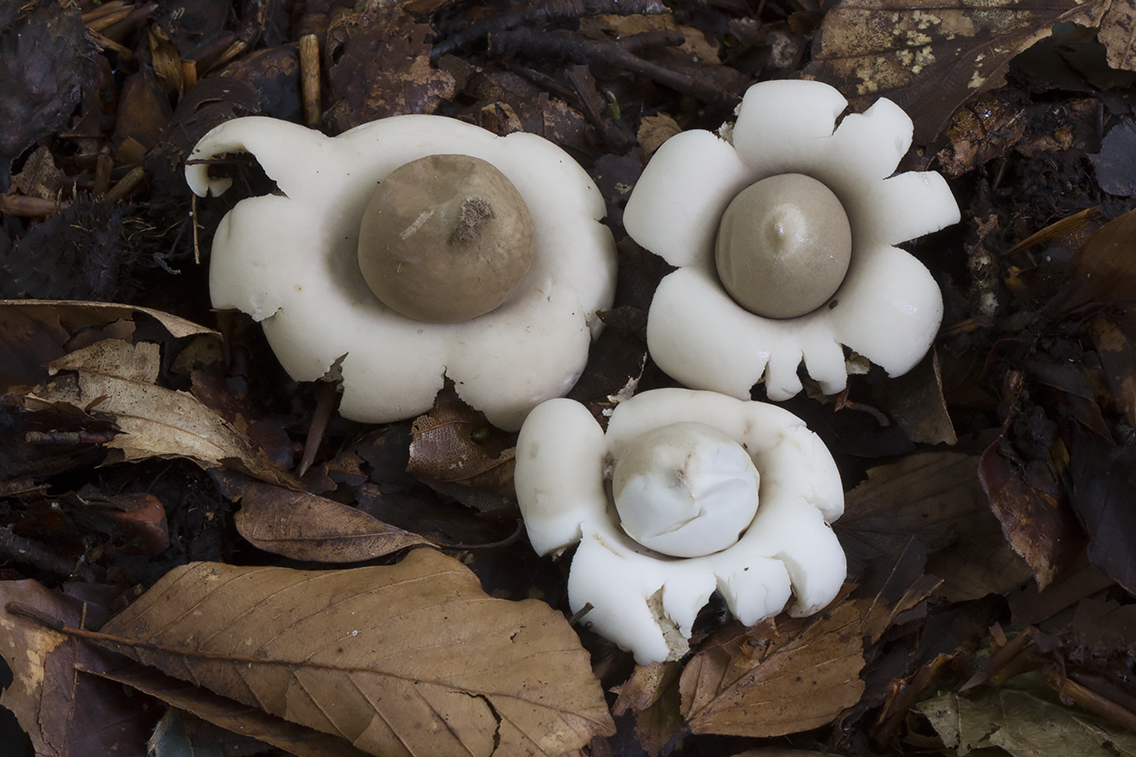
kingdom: Fungi
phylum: Basidiomycota
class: Agaricomycetes
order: Geastrales
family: Geastraceae
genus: Geastrum
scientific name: Geastrum fimbriatum
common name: frynset stjernebold
